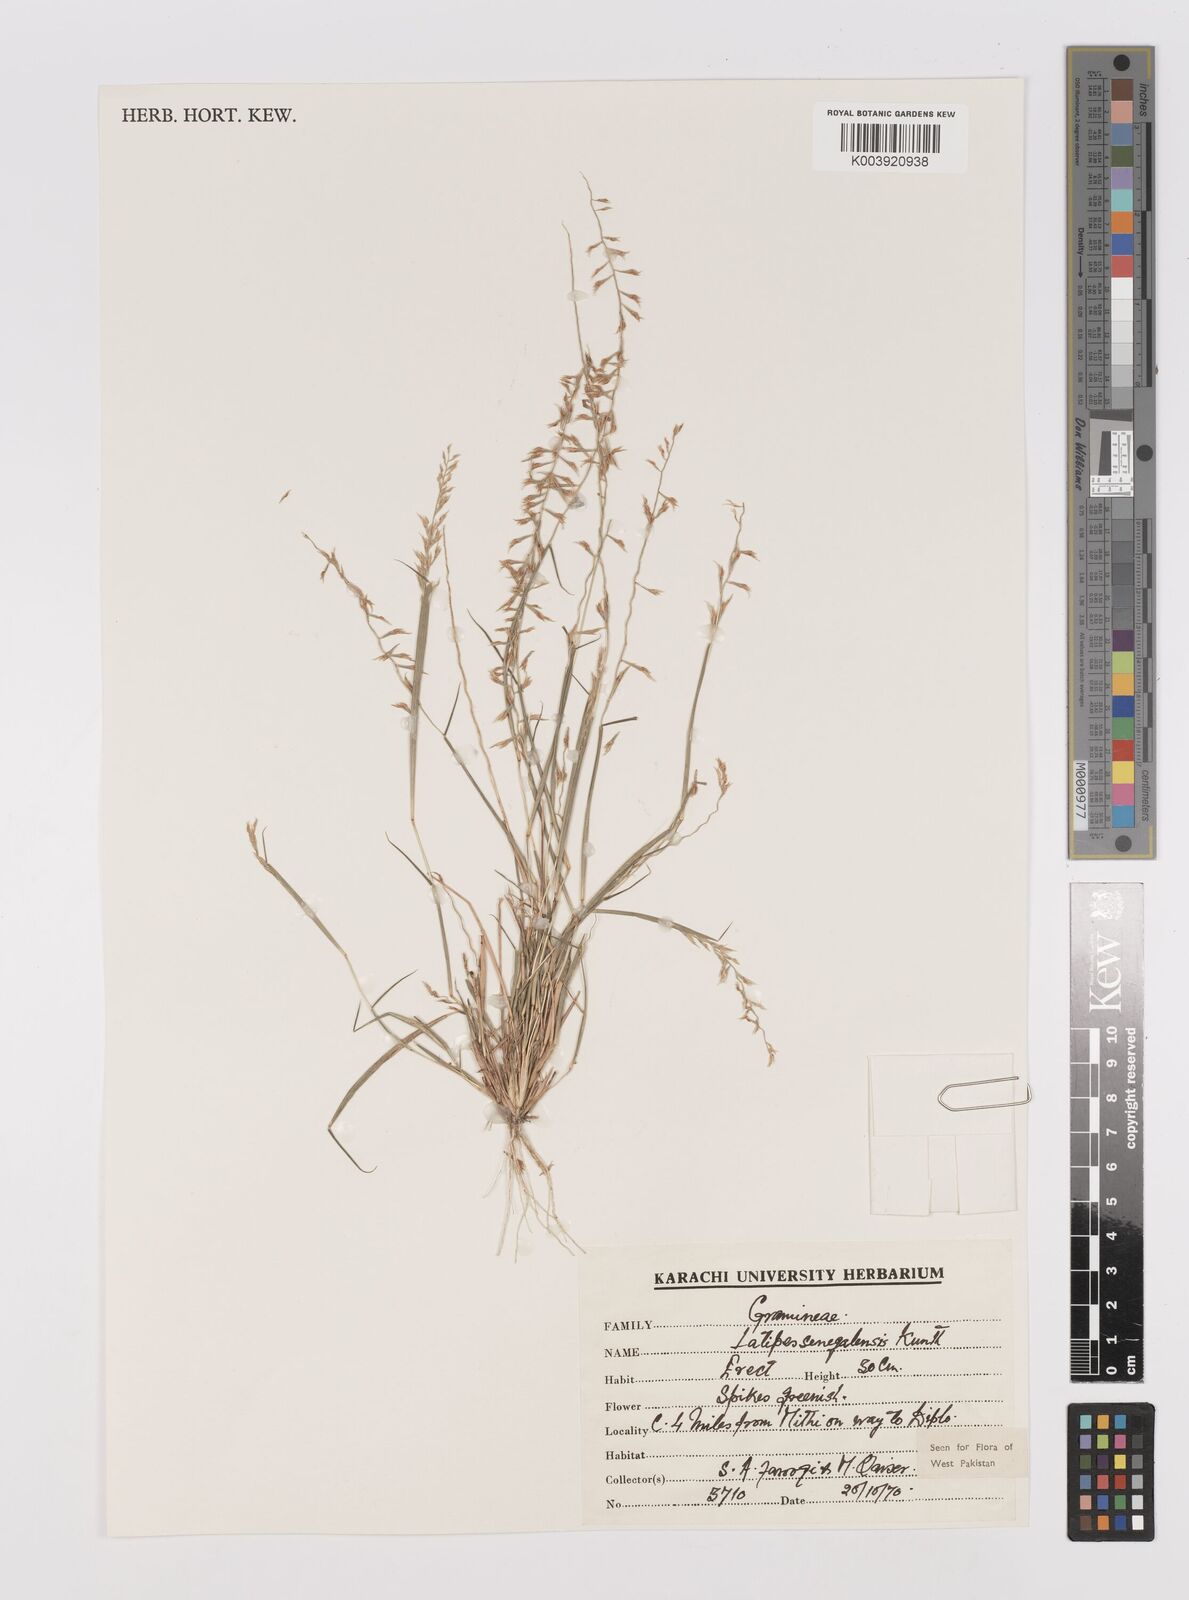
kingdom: Plantae
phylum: Tracheophyta
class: Liliopsida
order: Poales
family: Poaceae
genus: Leptothrium
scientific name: Leptothrium senegalense
